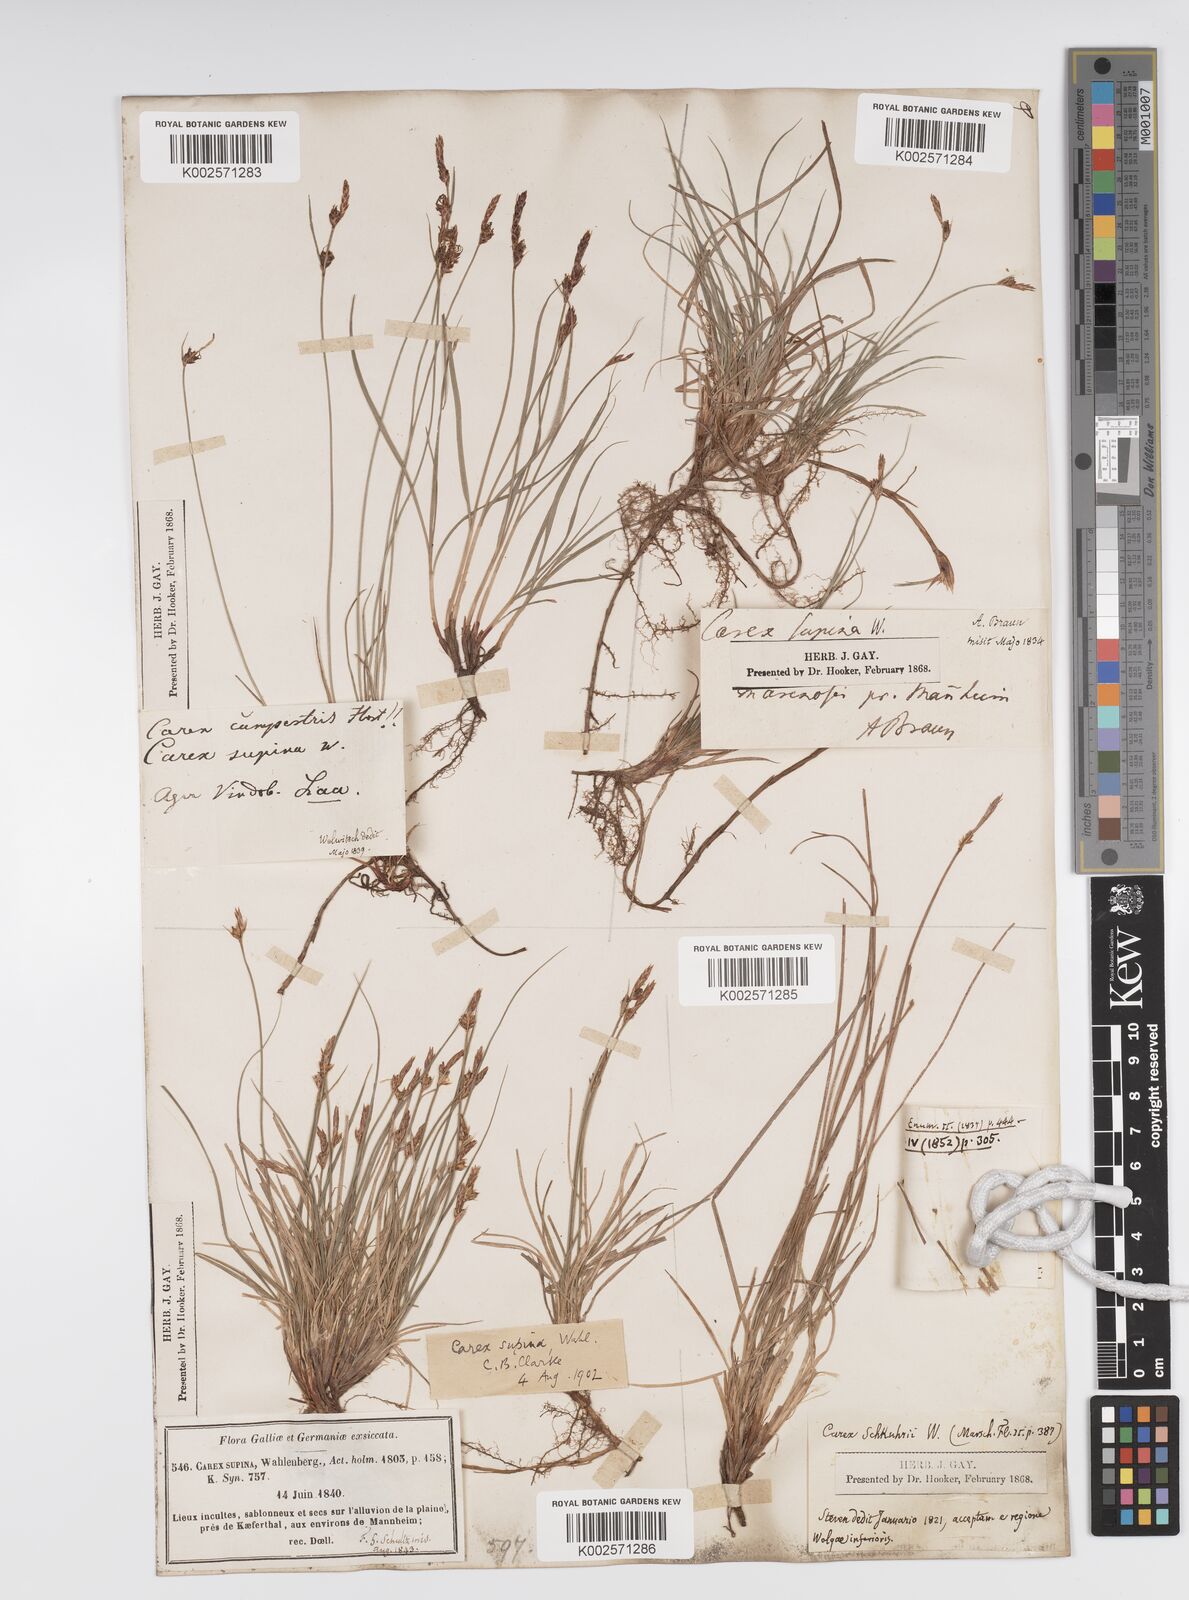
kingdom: Plantae
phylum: Tracheophyta
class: Liliopsida
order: Poales
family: Cyperaceae
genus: Carex
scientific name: Carex supina
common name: Lying-back sedge
